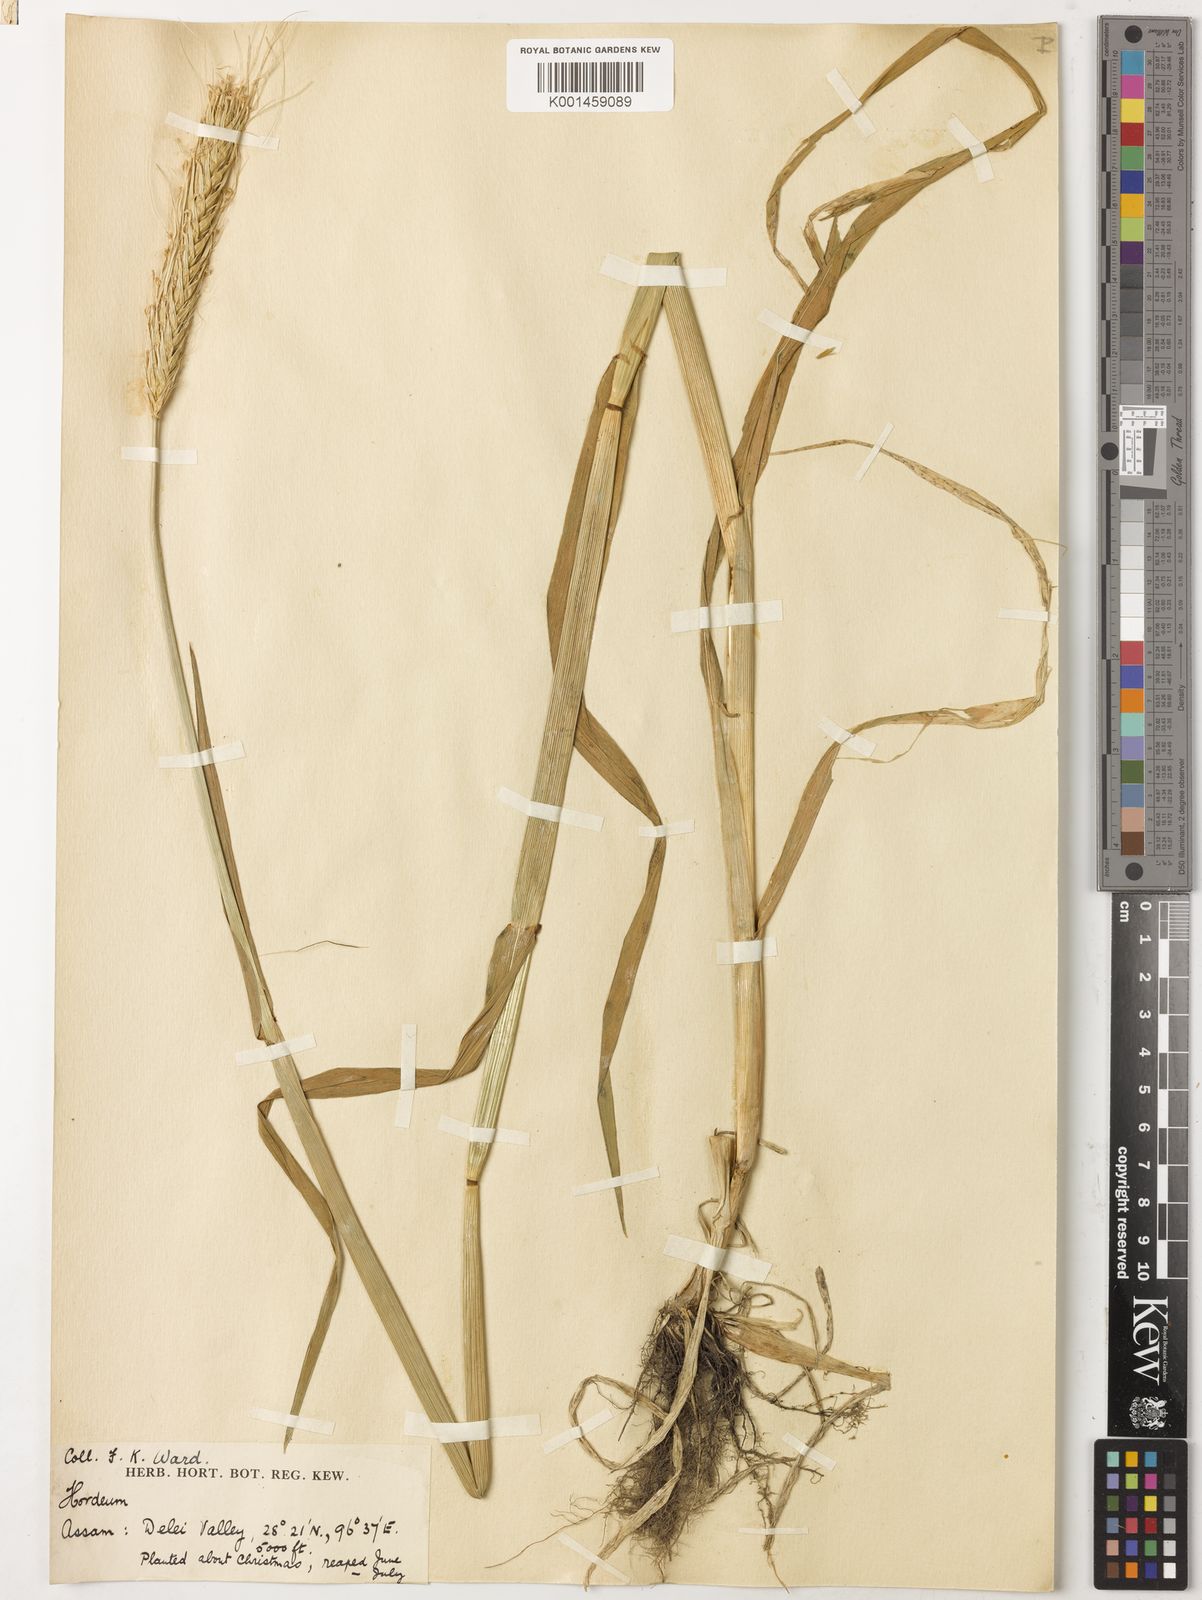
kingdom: Plantae
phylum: Tracheophyta
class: Liliopsida
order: Poales
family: Poaceae
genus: Hordeum
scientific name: Hordeum vulgare
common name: Common barley
